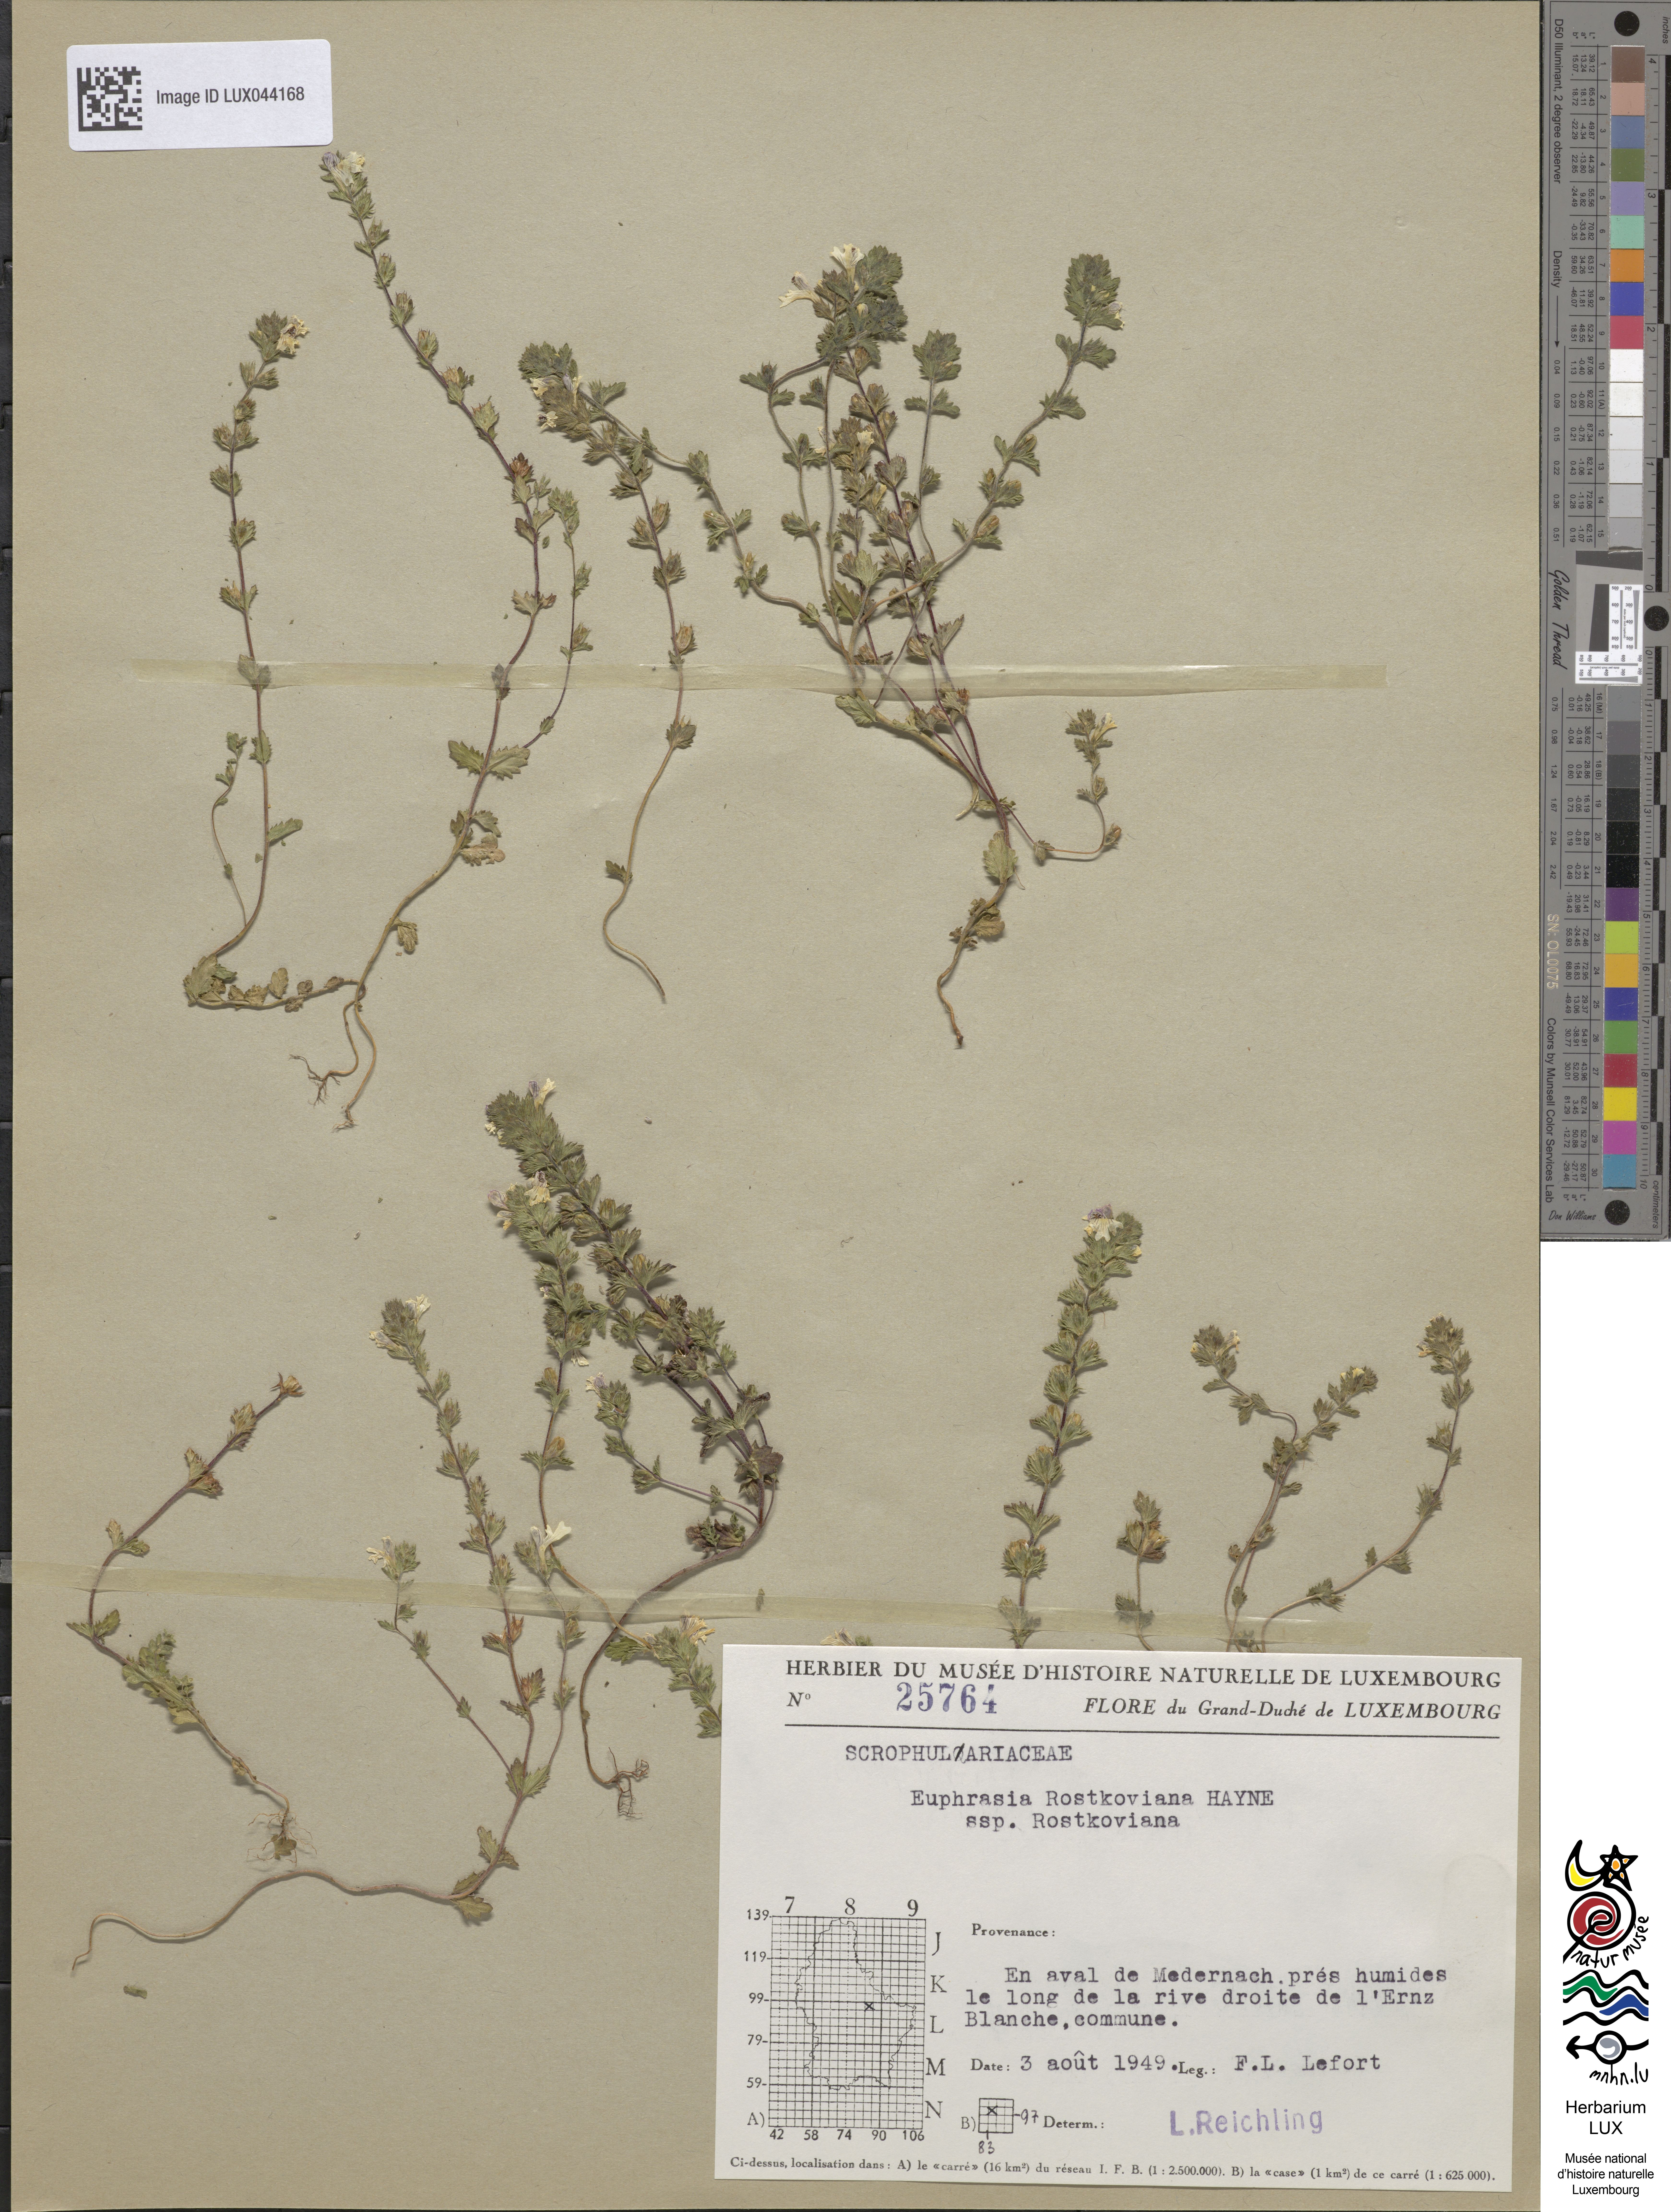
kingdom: Plantae
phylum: Tracheophyta
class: Magnoliopsida
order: Lamiales
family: Orobanchaceae
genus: Euphrasia
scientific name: Euphrasia officinalis
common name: Eyebright
